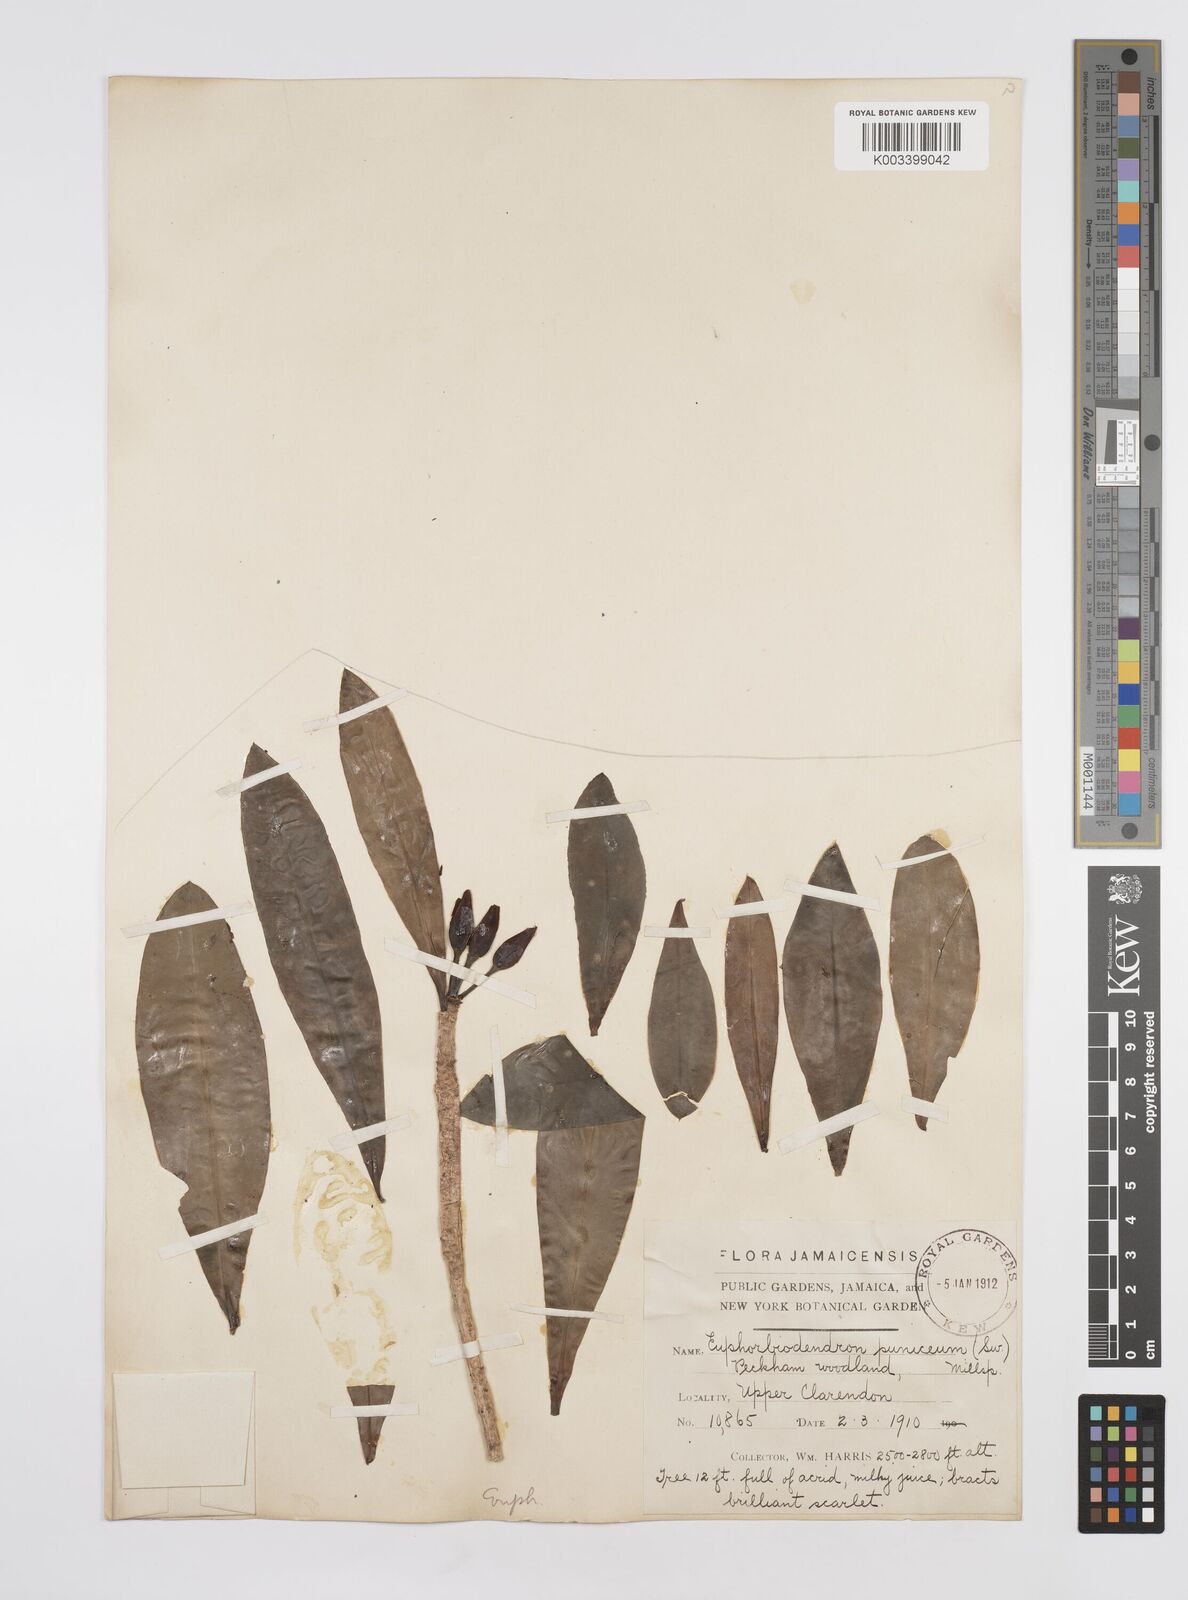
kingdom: Plantae
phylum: Tracheophyta
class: Magnoliopsida
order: Malpighiales
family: Euphorbiaceae
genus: Euphorbia
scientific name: Euphorbia punicea
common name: Vegetable-leather
